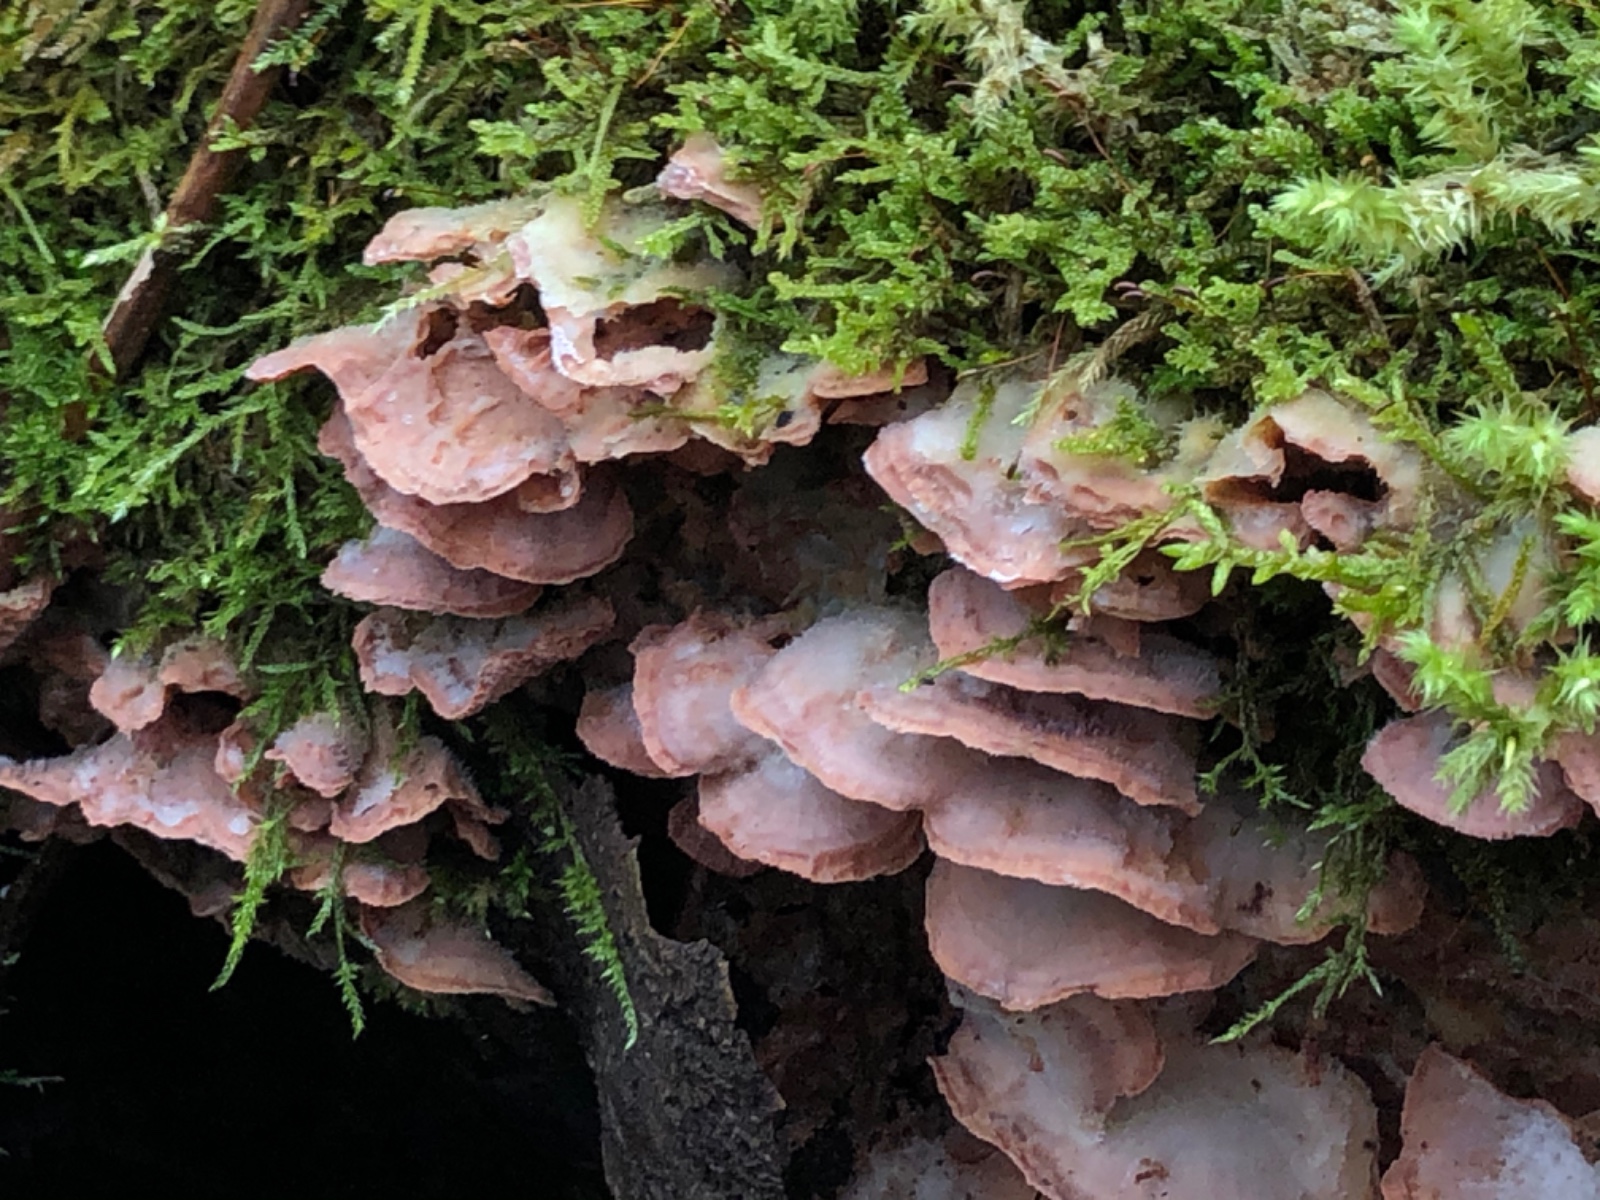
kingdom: Fungi
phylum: Basidiomycota
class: Agaricomycetes
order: Polyporales
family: Meruliaceae
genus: Phlebia
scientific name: Phlebia tremellosa
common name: bævrende åresvamp
